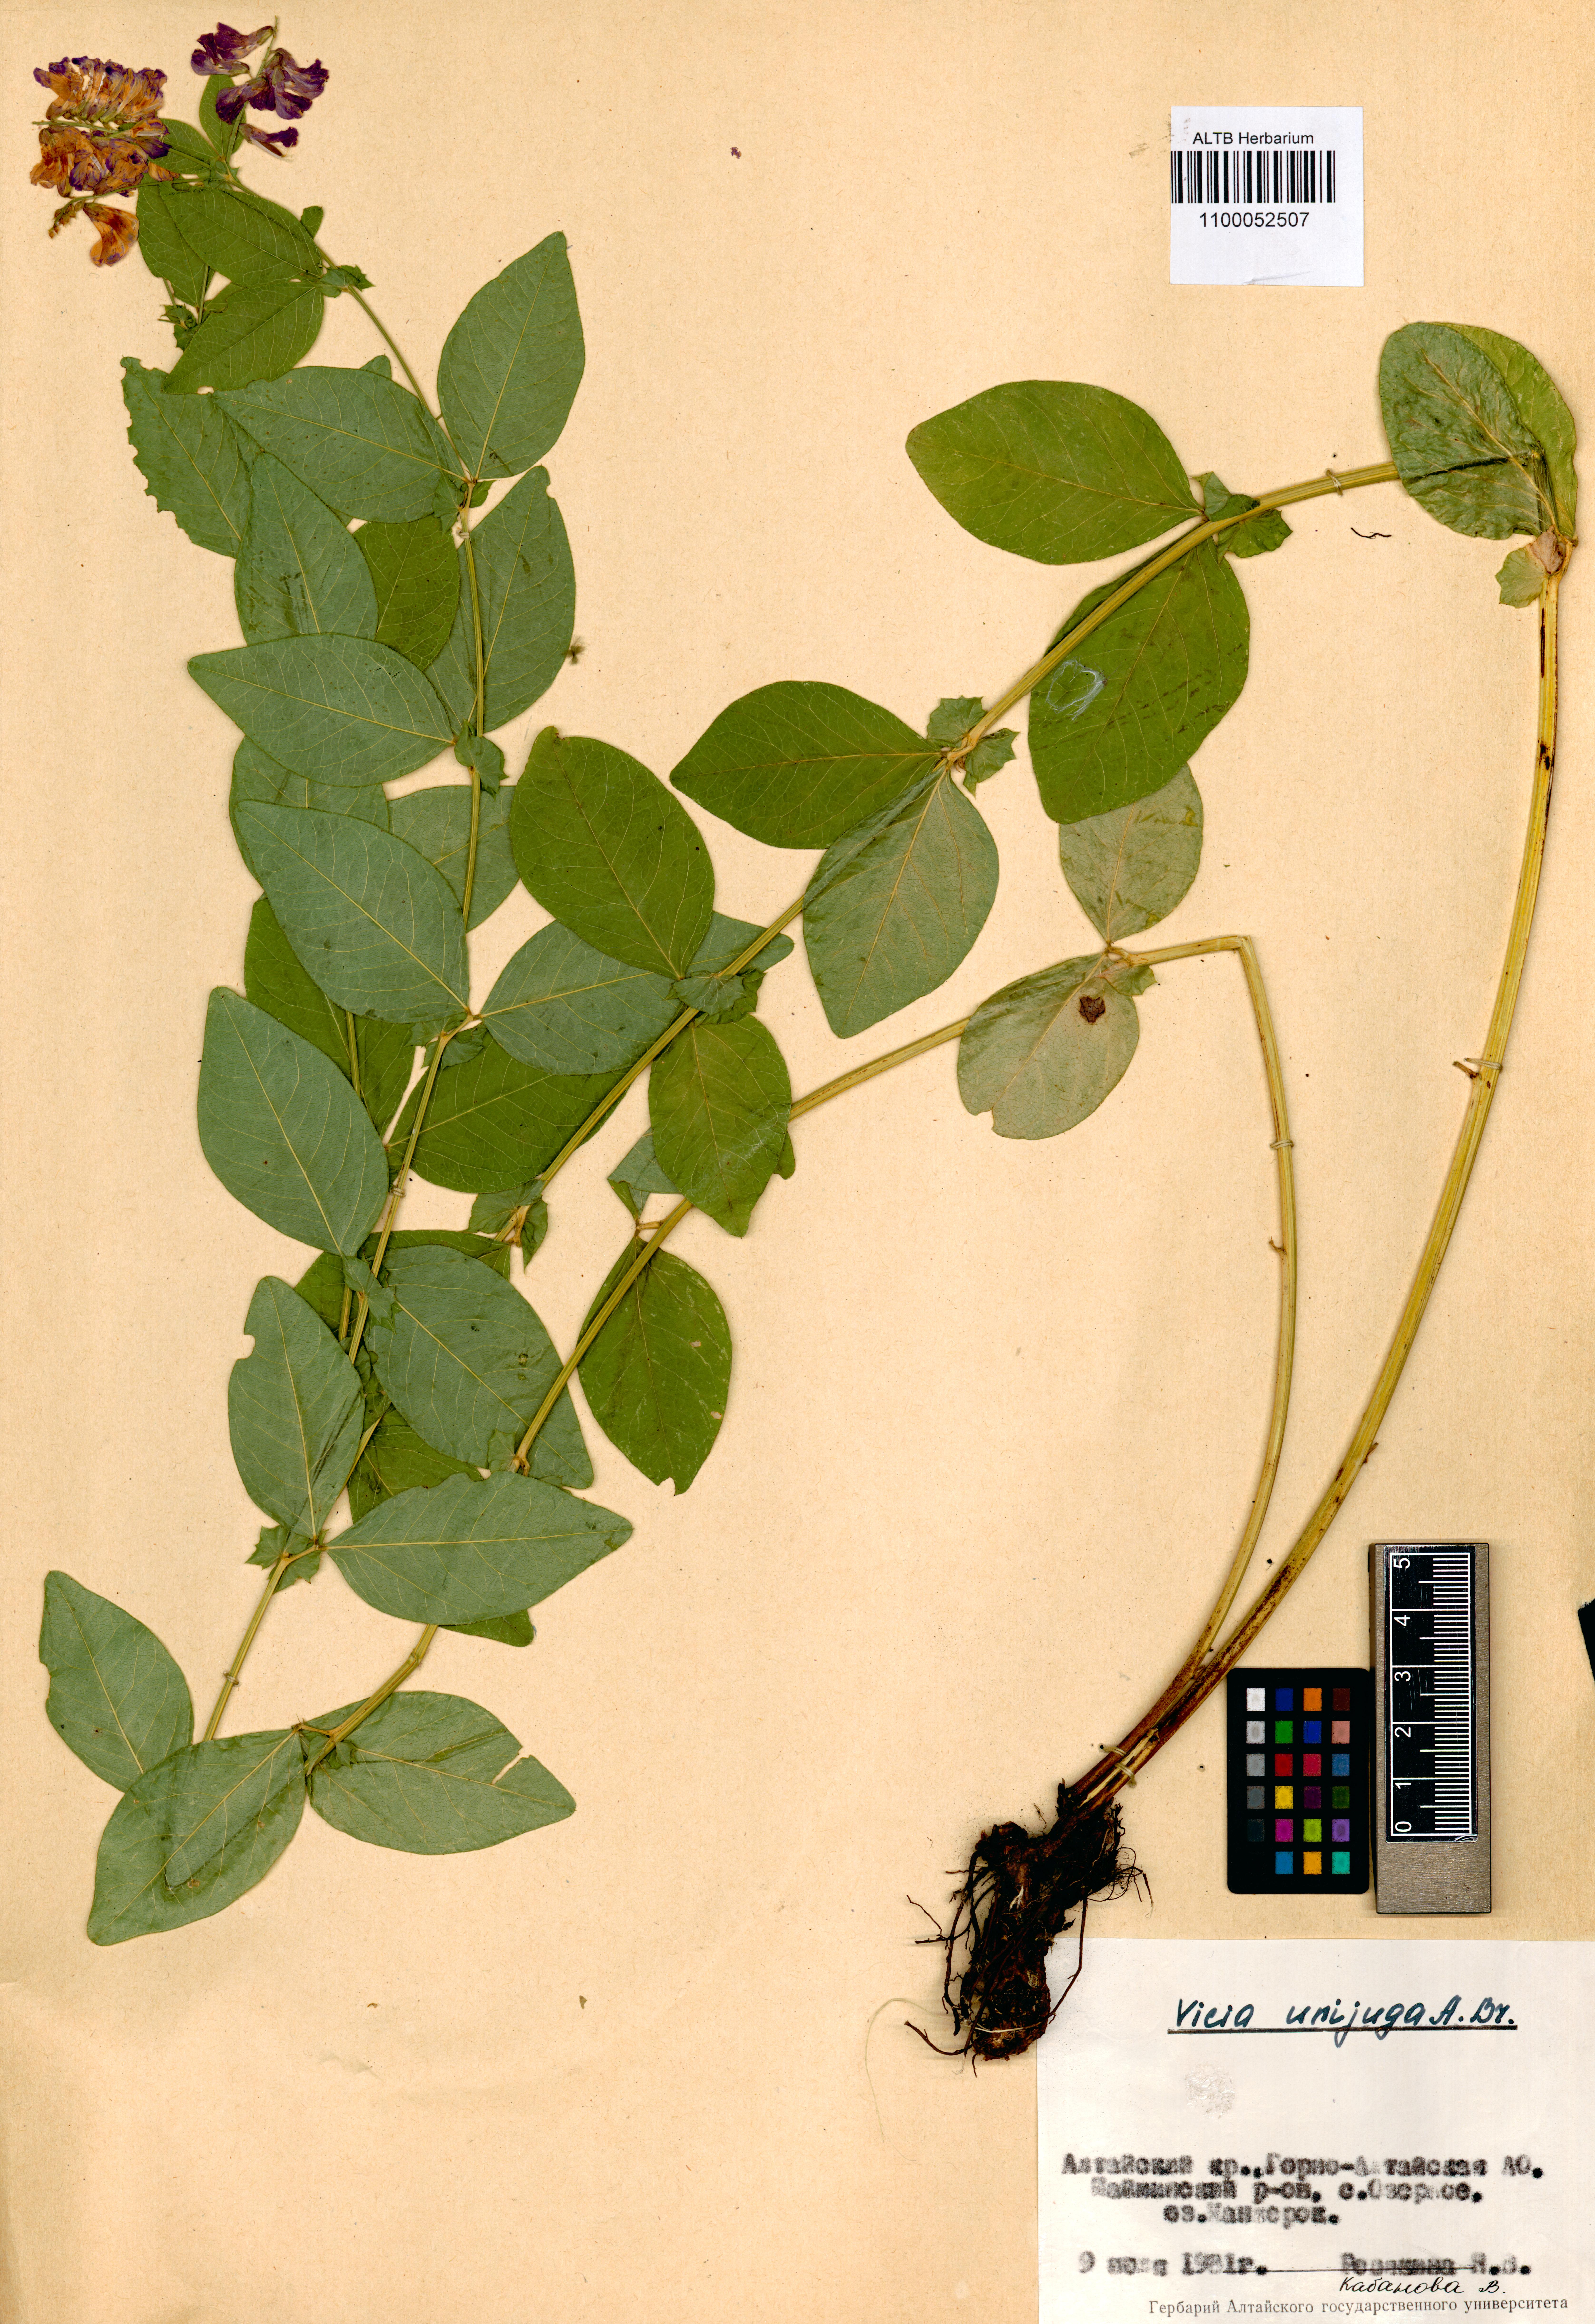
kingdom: Plantae
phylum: Tracheophyta
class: Magnoliopsida
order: Fabales
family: Fabaceae
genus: Vicia
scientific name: Vicia unijuga
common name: Two-leaf vetch
